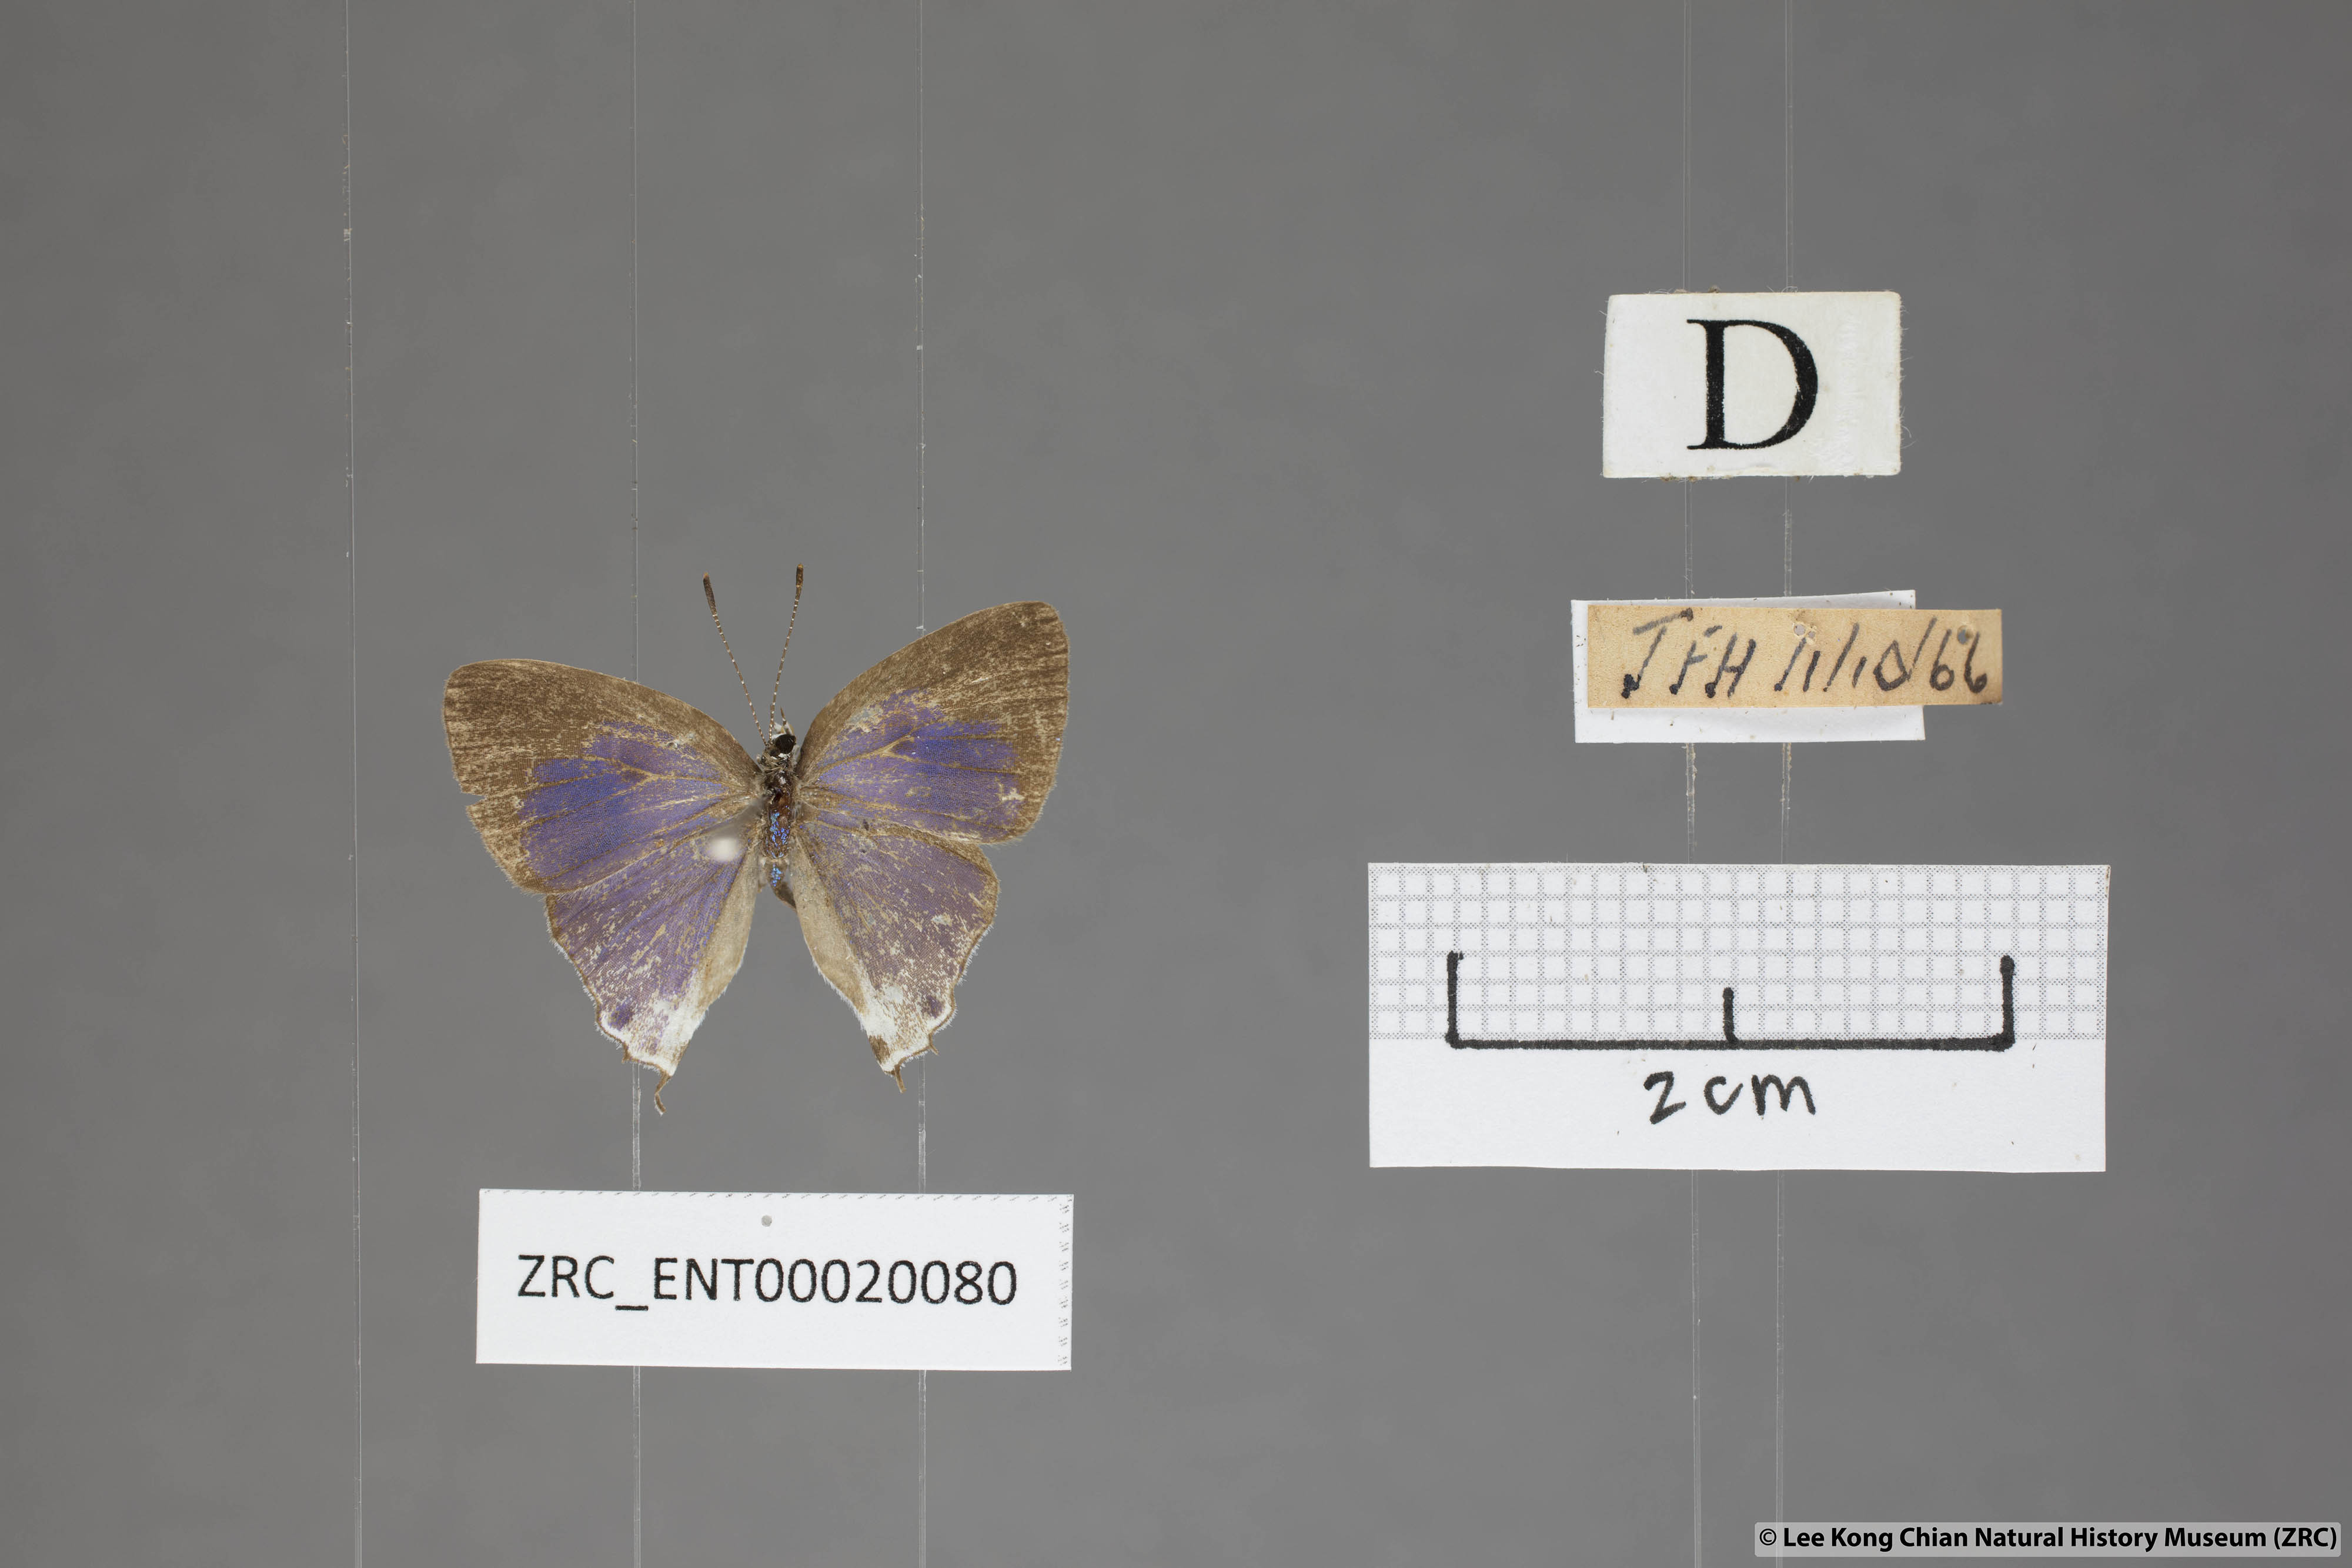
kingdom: Animalia
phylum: Arthropoda
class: Insecta
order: Lepidoptera
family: Lycaenidae
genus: Hypolycaena
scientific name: Hypolycaena amabilis
